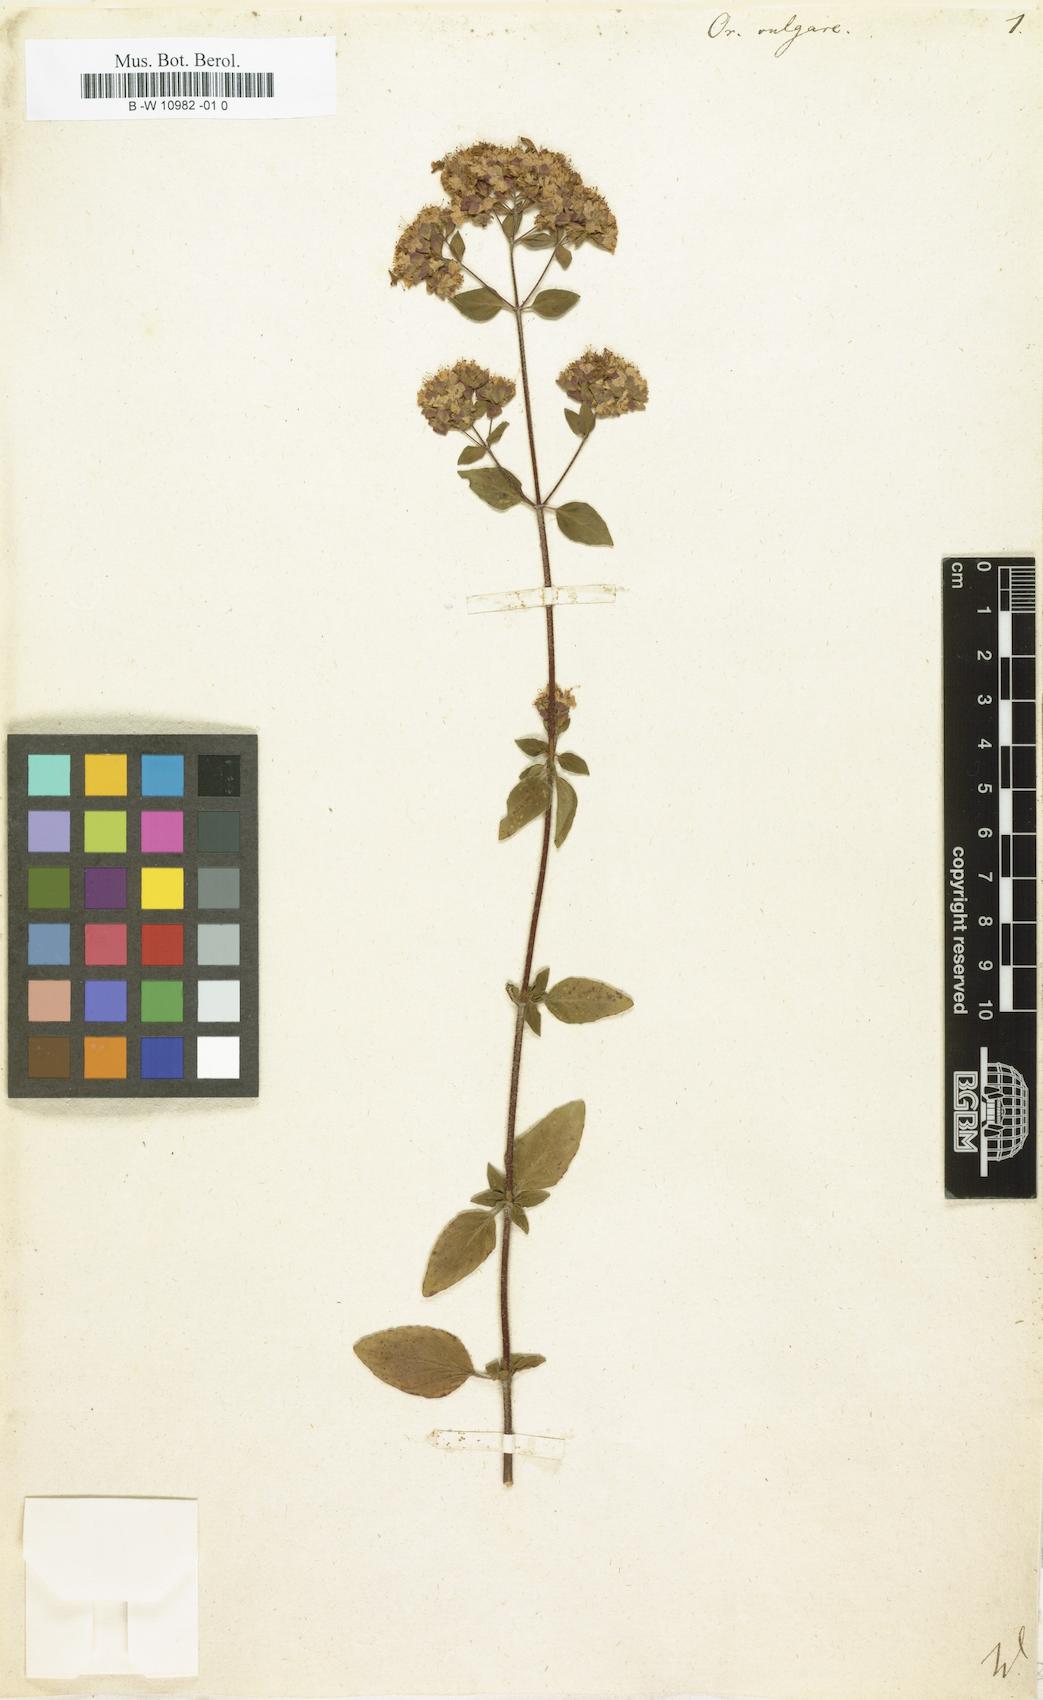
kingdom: Plantae
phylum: Tracheophyta
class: Magnoliopsida
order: Lamiales
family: Lamiaceae
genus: Origanum
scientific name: Origanum vulgare
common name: Wild marjoram
